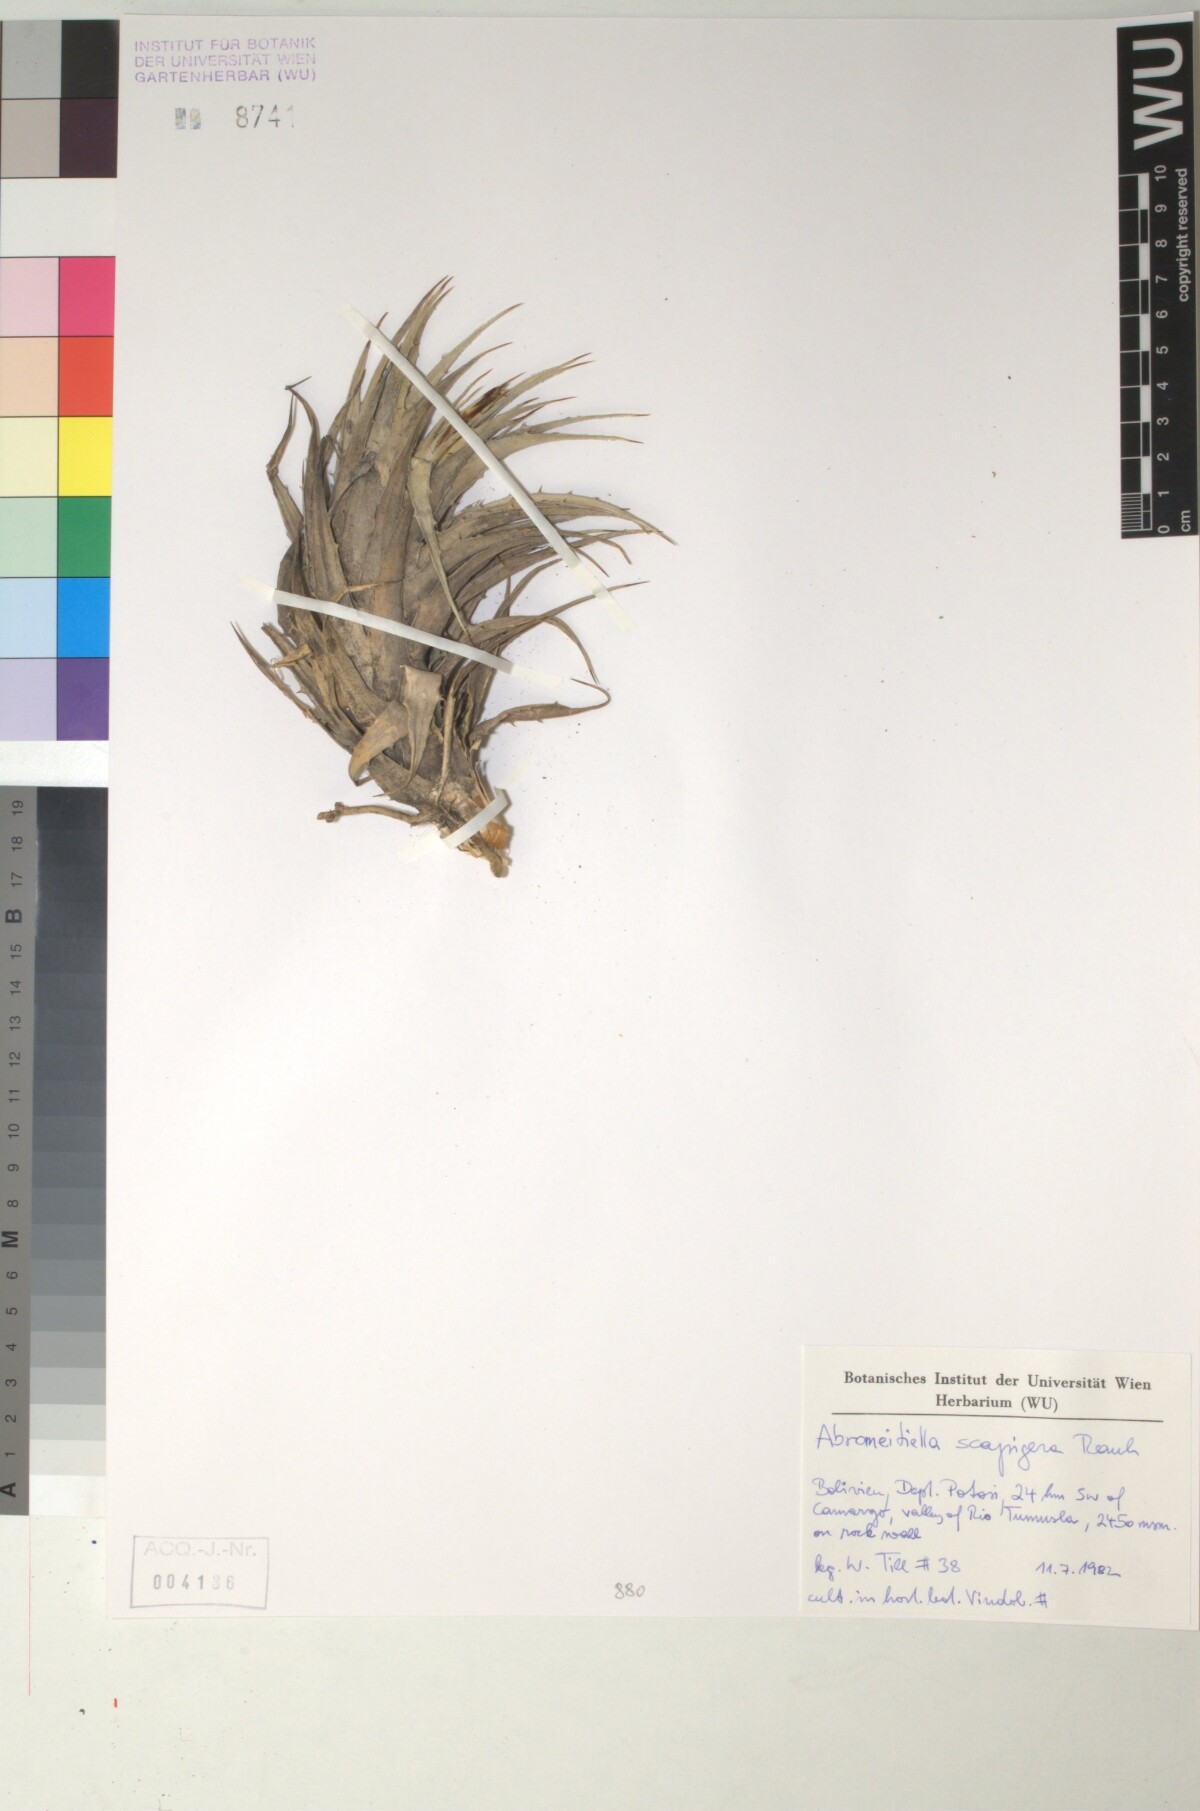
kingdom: Plantae
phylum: Tracheophyta
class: Liliopsida
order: Poales
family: Bromeliaceae
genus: Deuterocohnia
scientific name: Deuterocohnia scapigera
